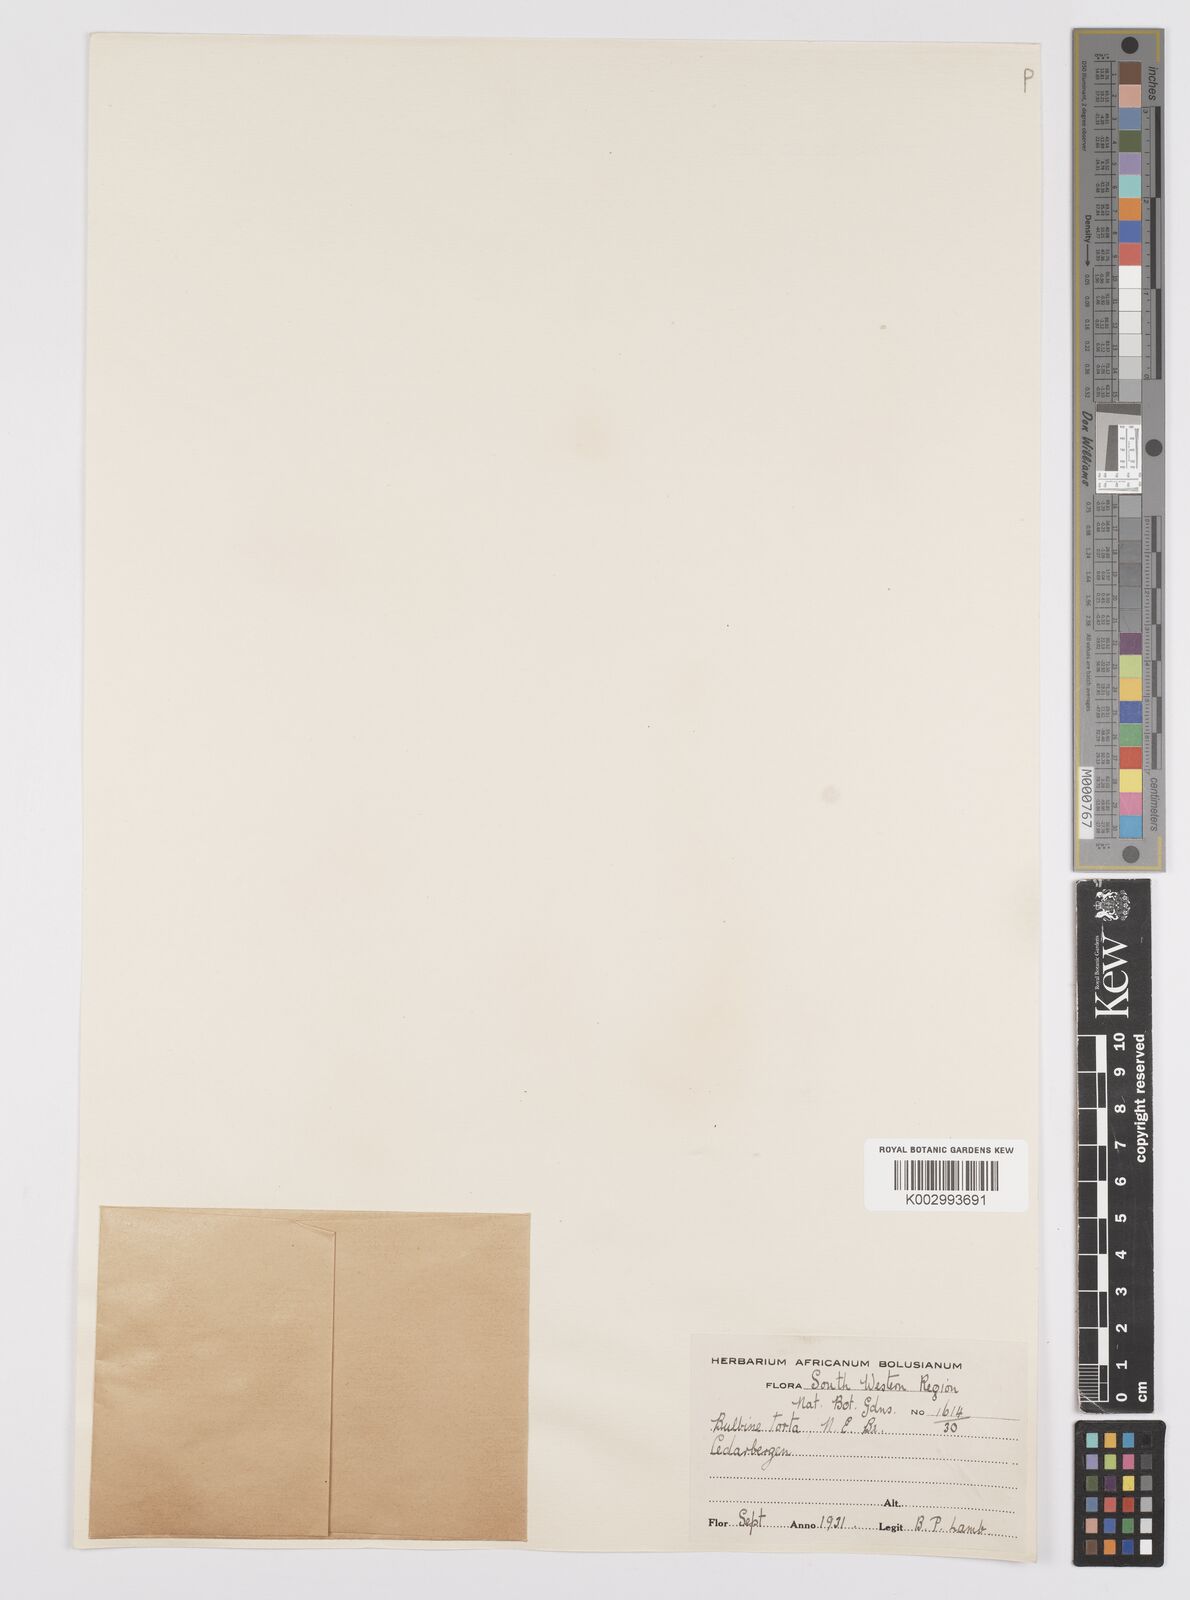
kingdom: Plantae
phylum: Tracheophyta
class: Liliopsida
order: Asparagales
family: Asphodelaceae
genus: Bulbine
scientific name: Bulbine torta
